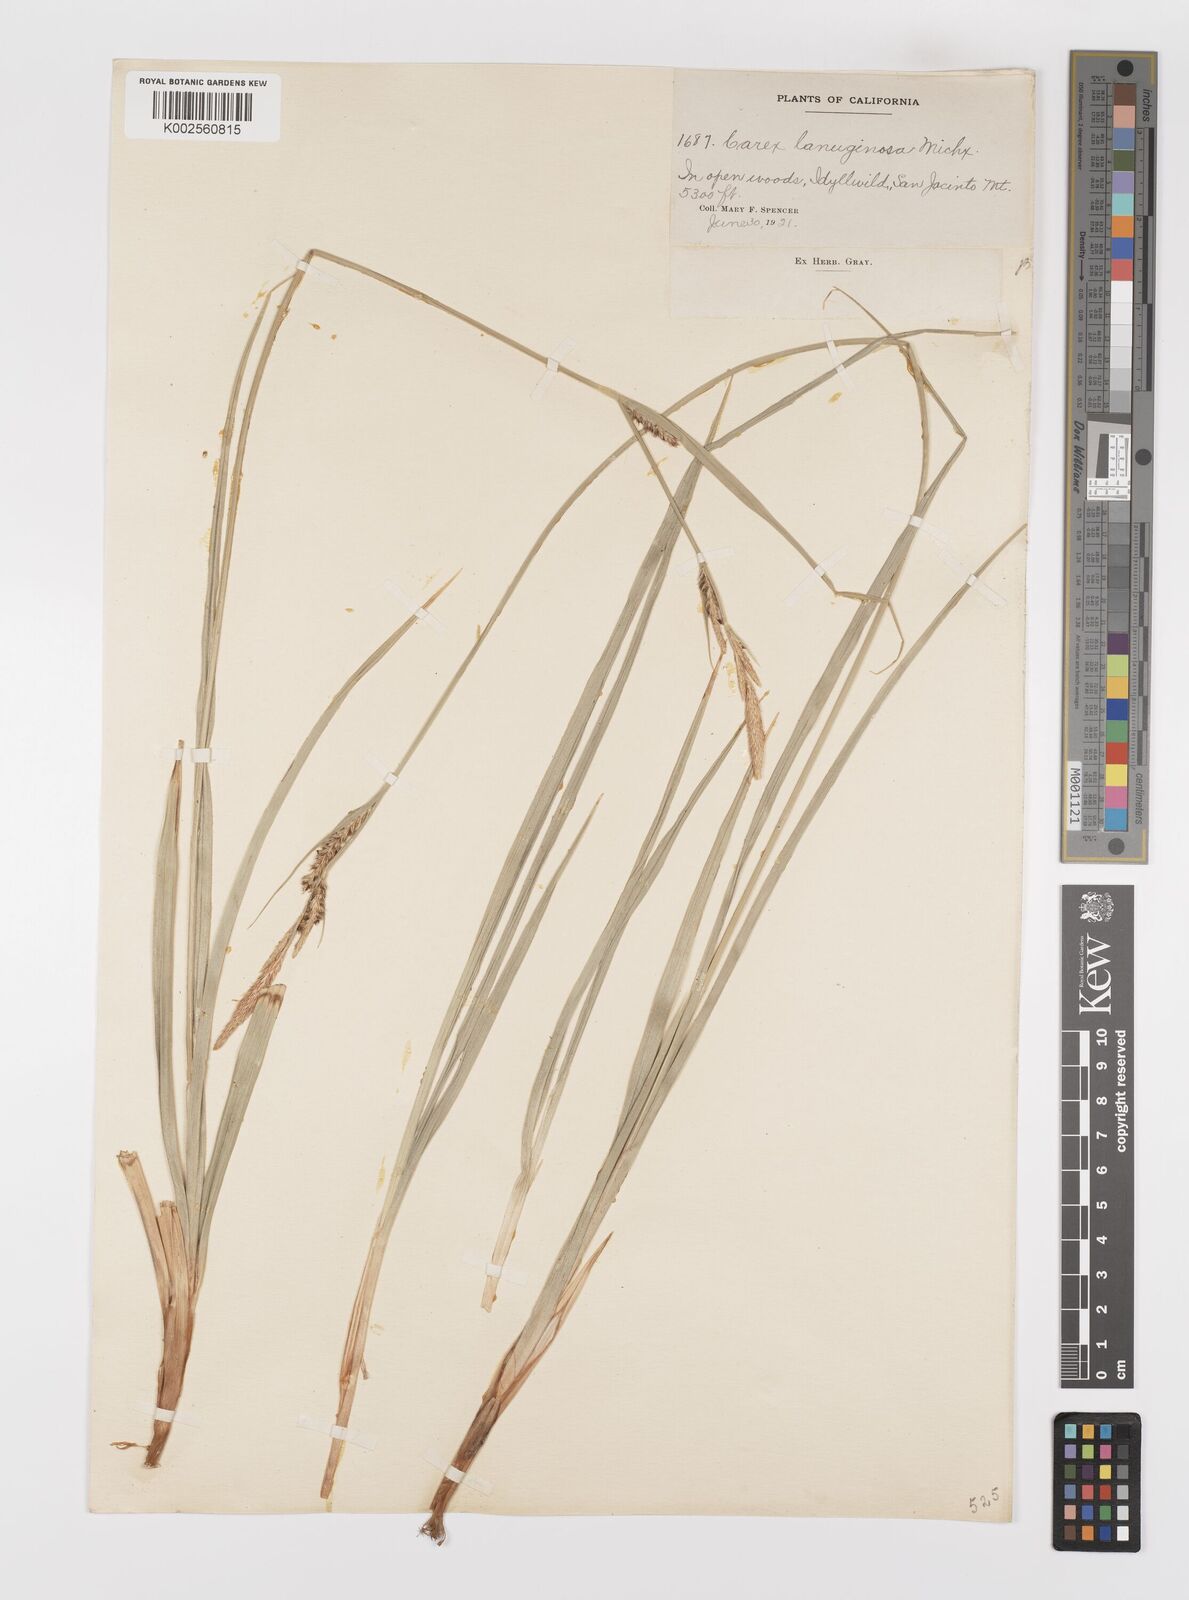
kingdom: Plantae
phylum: Tracheophyta
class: Liliopsida
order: Poales
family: Cyperaceae
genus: Carex
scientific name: Carex lasiocarpa
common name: Slender sedge
